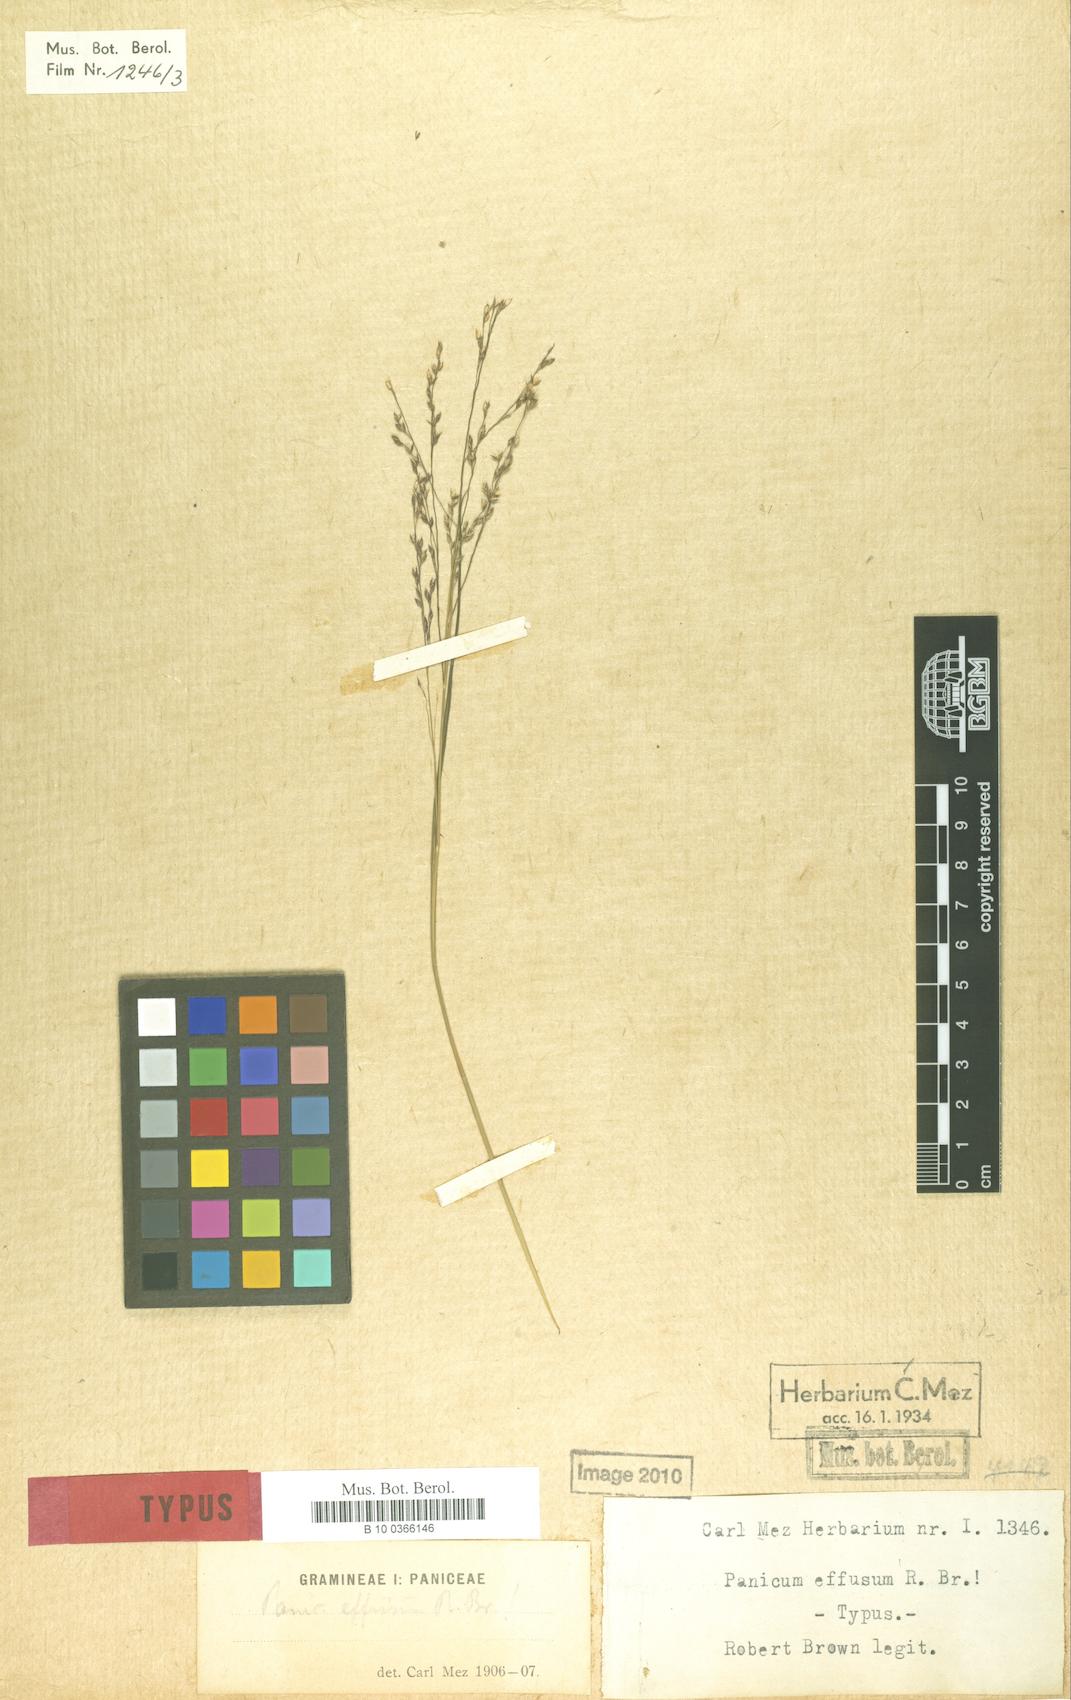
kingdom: Plantae
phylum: Tracheophyta
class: Liliopsida
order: Poales
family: Poaceae
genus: Panicum
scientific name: Panicum effusum
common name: Hairy panic grass
